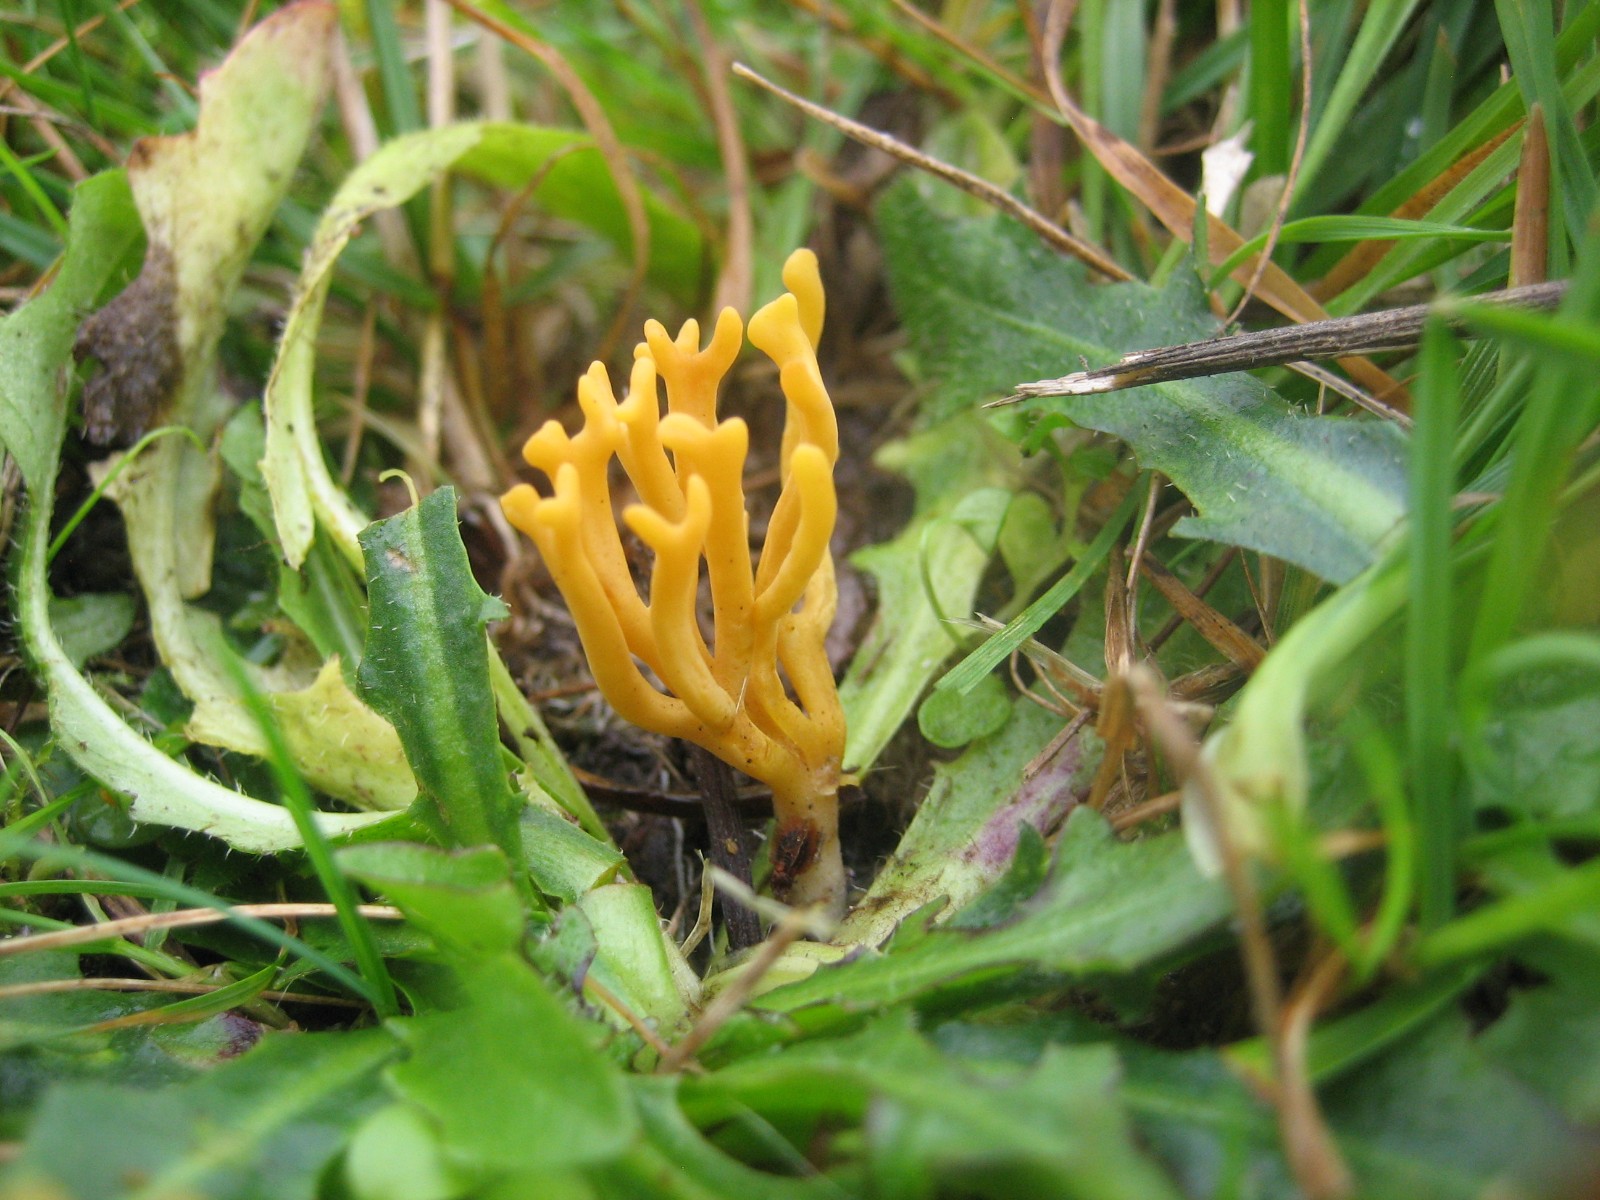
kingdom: Fungi
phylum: Basidiomycota
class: Agaricomycetes
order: Agaricales
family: Clavariaceae
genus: Clavulinopsis
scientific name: Clavulinopsis corniculata
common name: eng-køllesvamp
